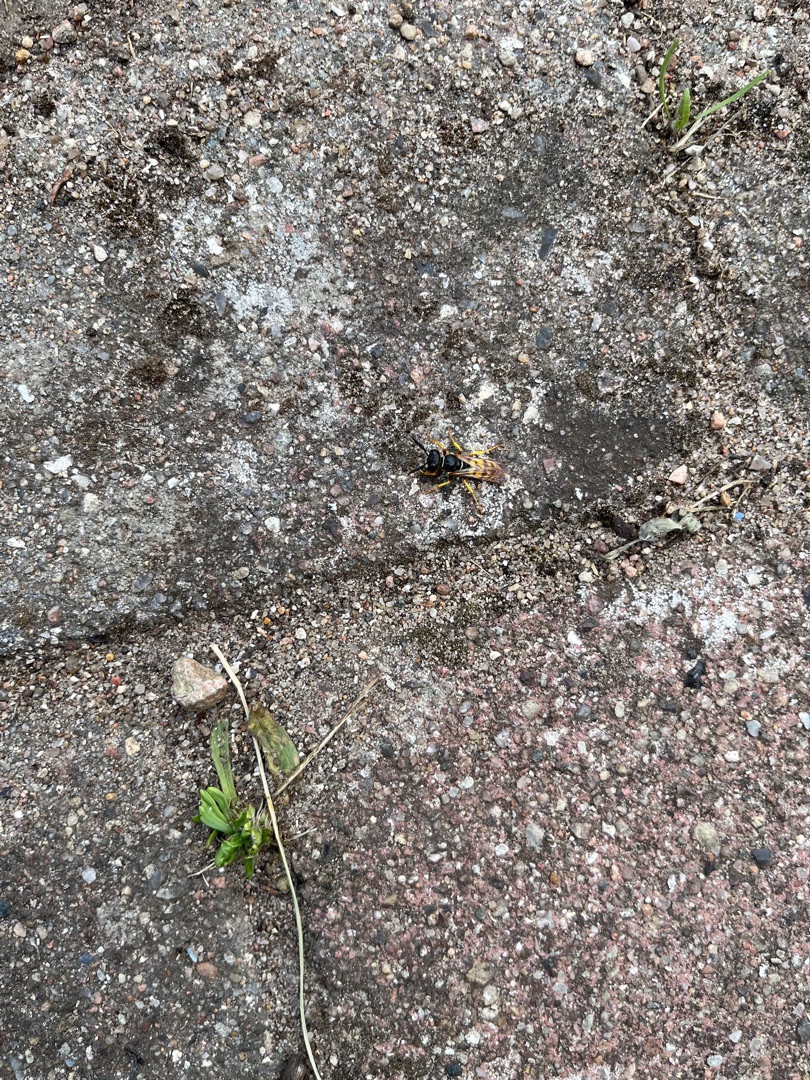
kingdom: Animalia
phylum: Arthropoda
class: Insecta
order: Hymenoptera
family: Crabronidae
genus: Philanthus
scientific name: Philanthus triangulum
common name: Biulv
